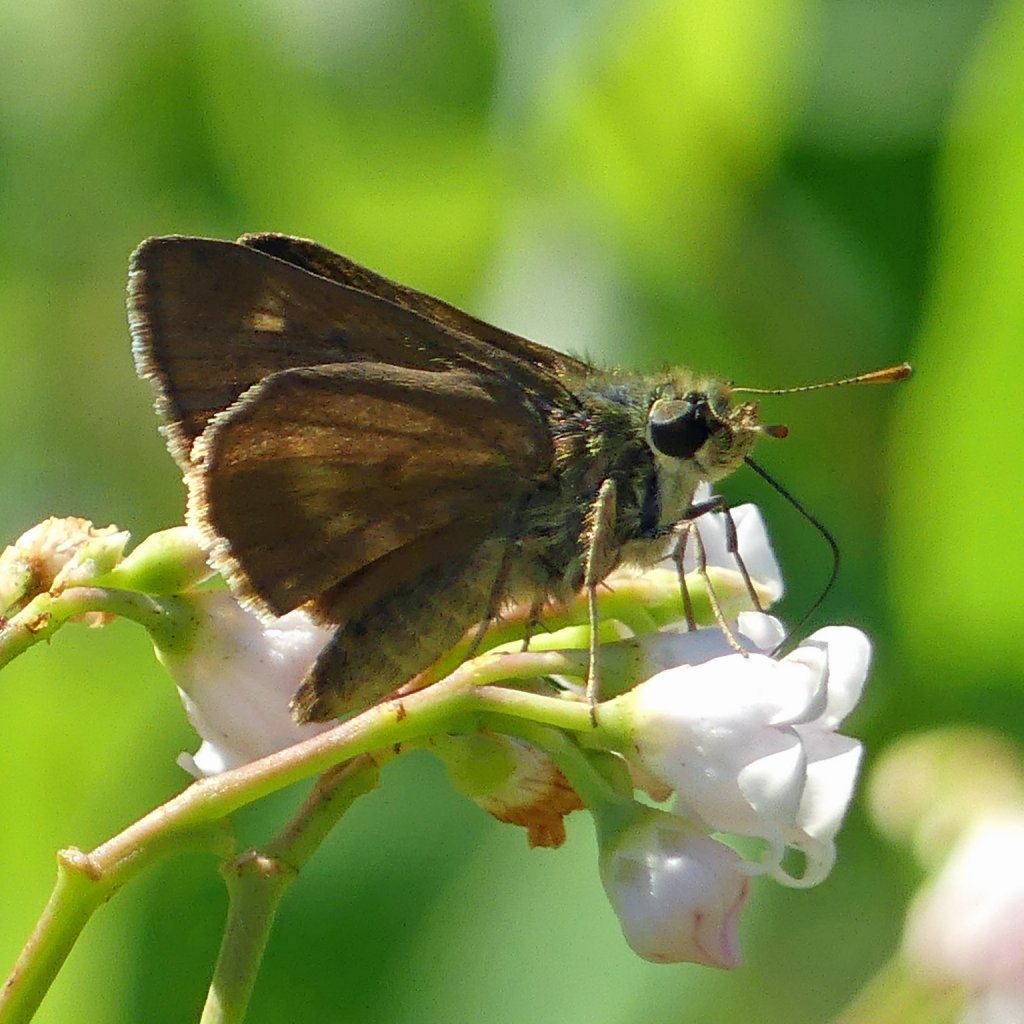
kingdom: Animalia
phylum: Arthropoda
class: Insecta
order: Lepidoptera
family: Hesperiidae
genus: Vernia
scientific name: Vernia verna
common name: Little Glassywing
